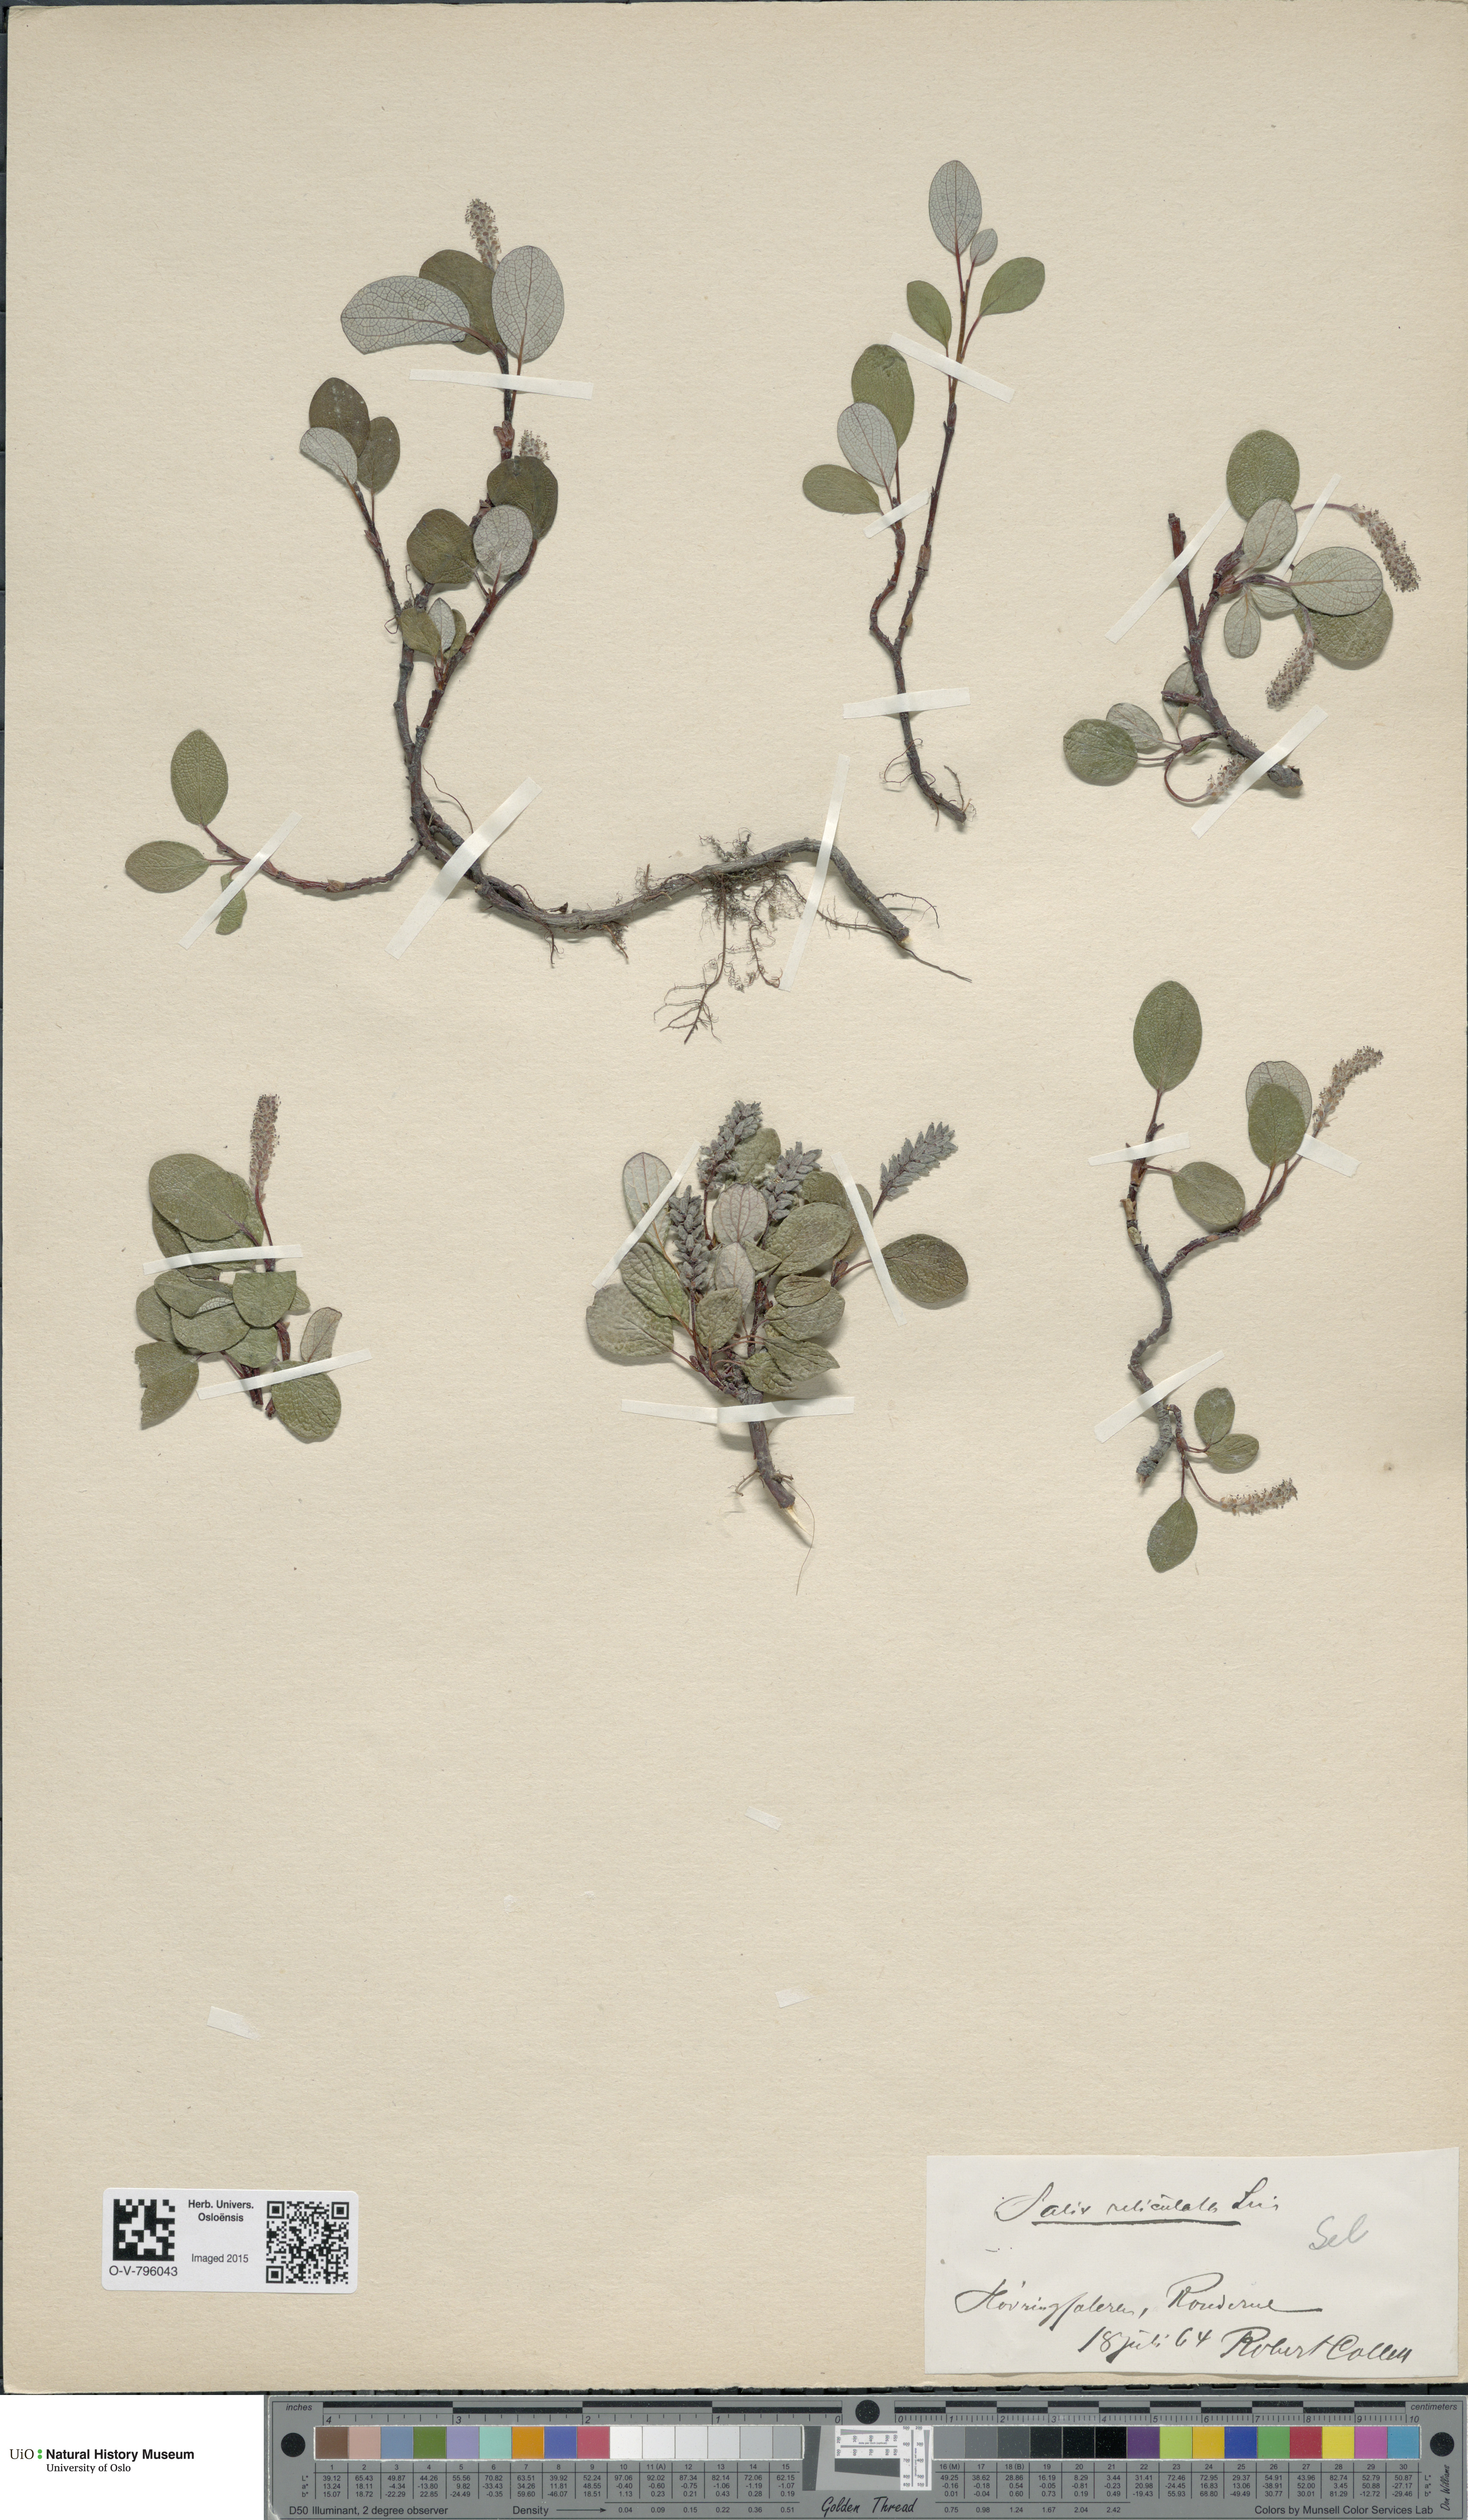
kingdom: Plantae
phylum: Tracheophyta
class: Magnoliopsida
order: Malpighiales
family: Salicaceae
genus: Salix
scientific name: Salix reticulata
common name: Net-leaved willow
